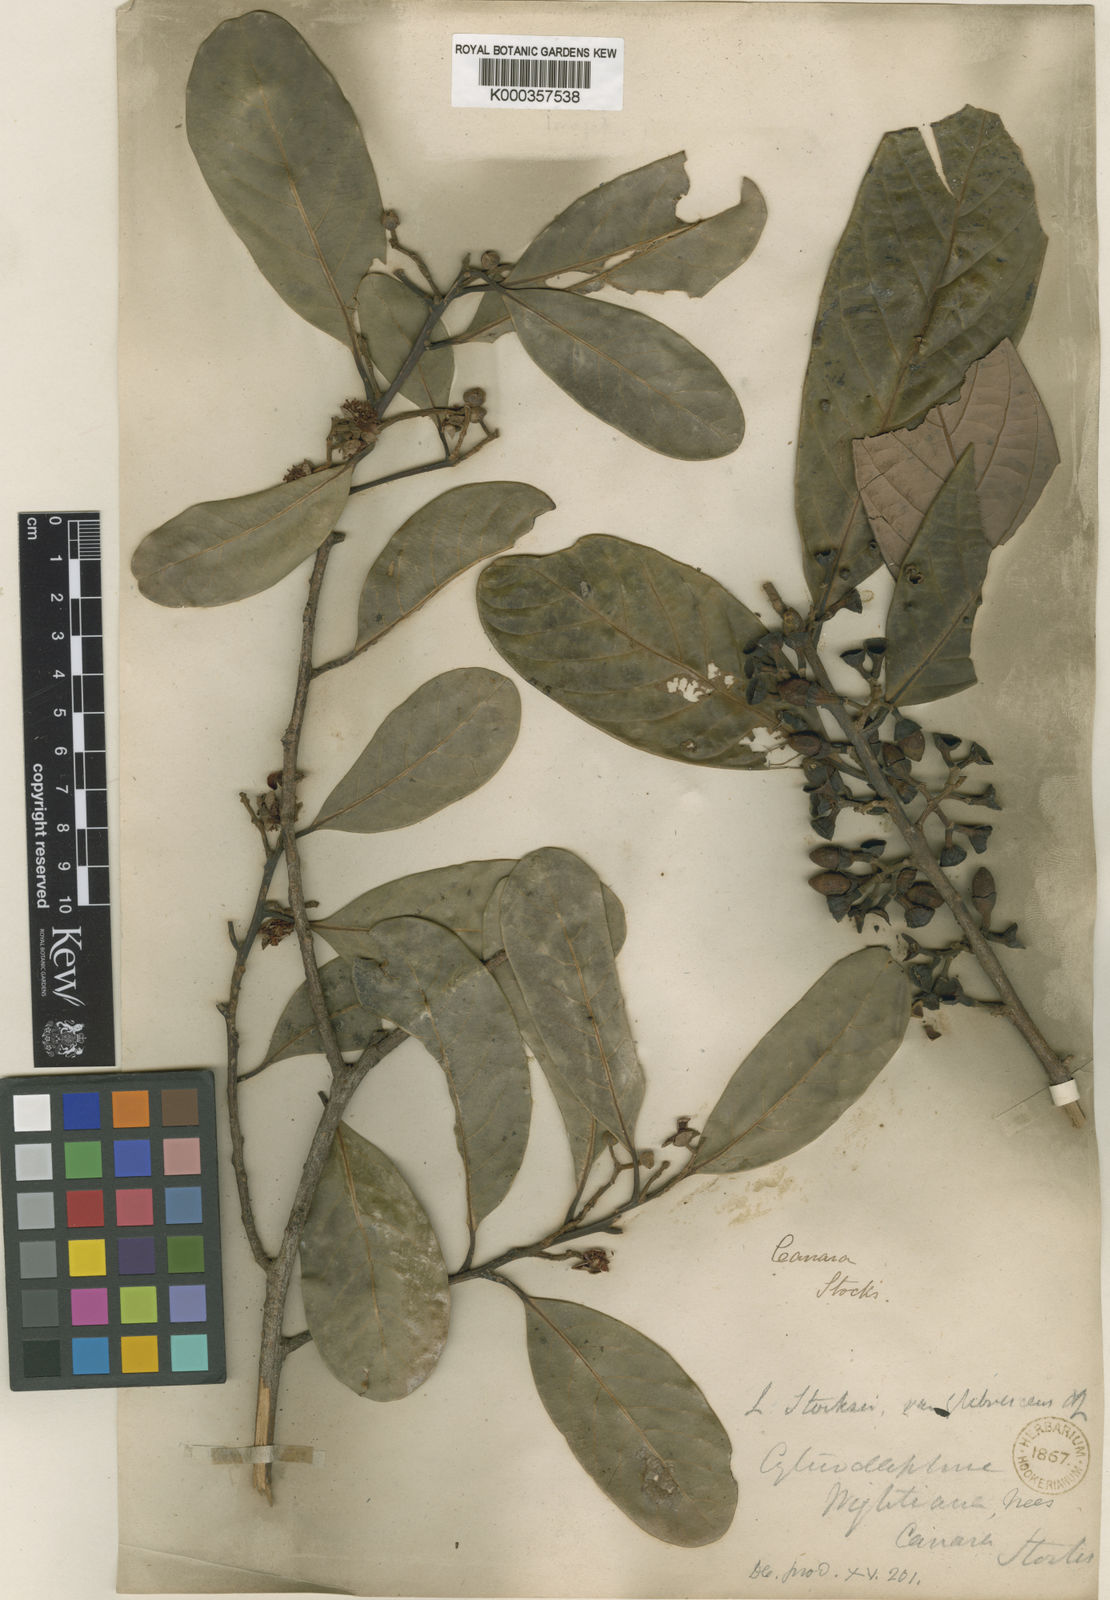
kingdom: Plantae
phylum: Tracheophyta
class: Magnoliopsida
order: Laurales
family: Lauraceae
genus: Litsea
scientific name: Litsea stocksii
